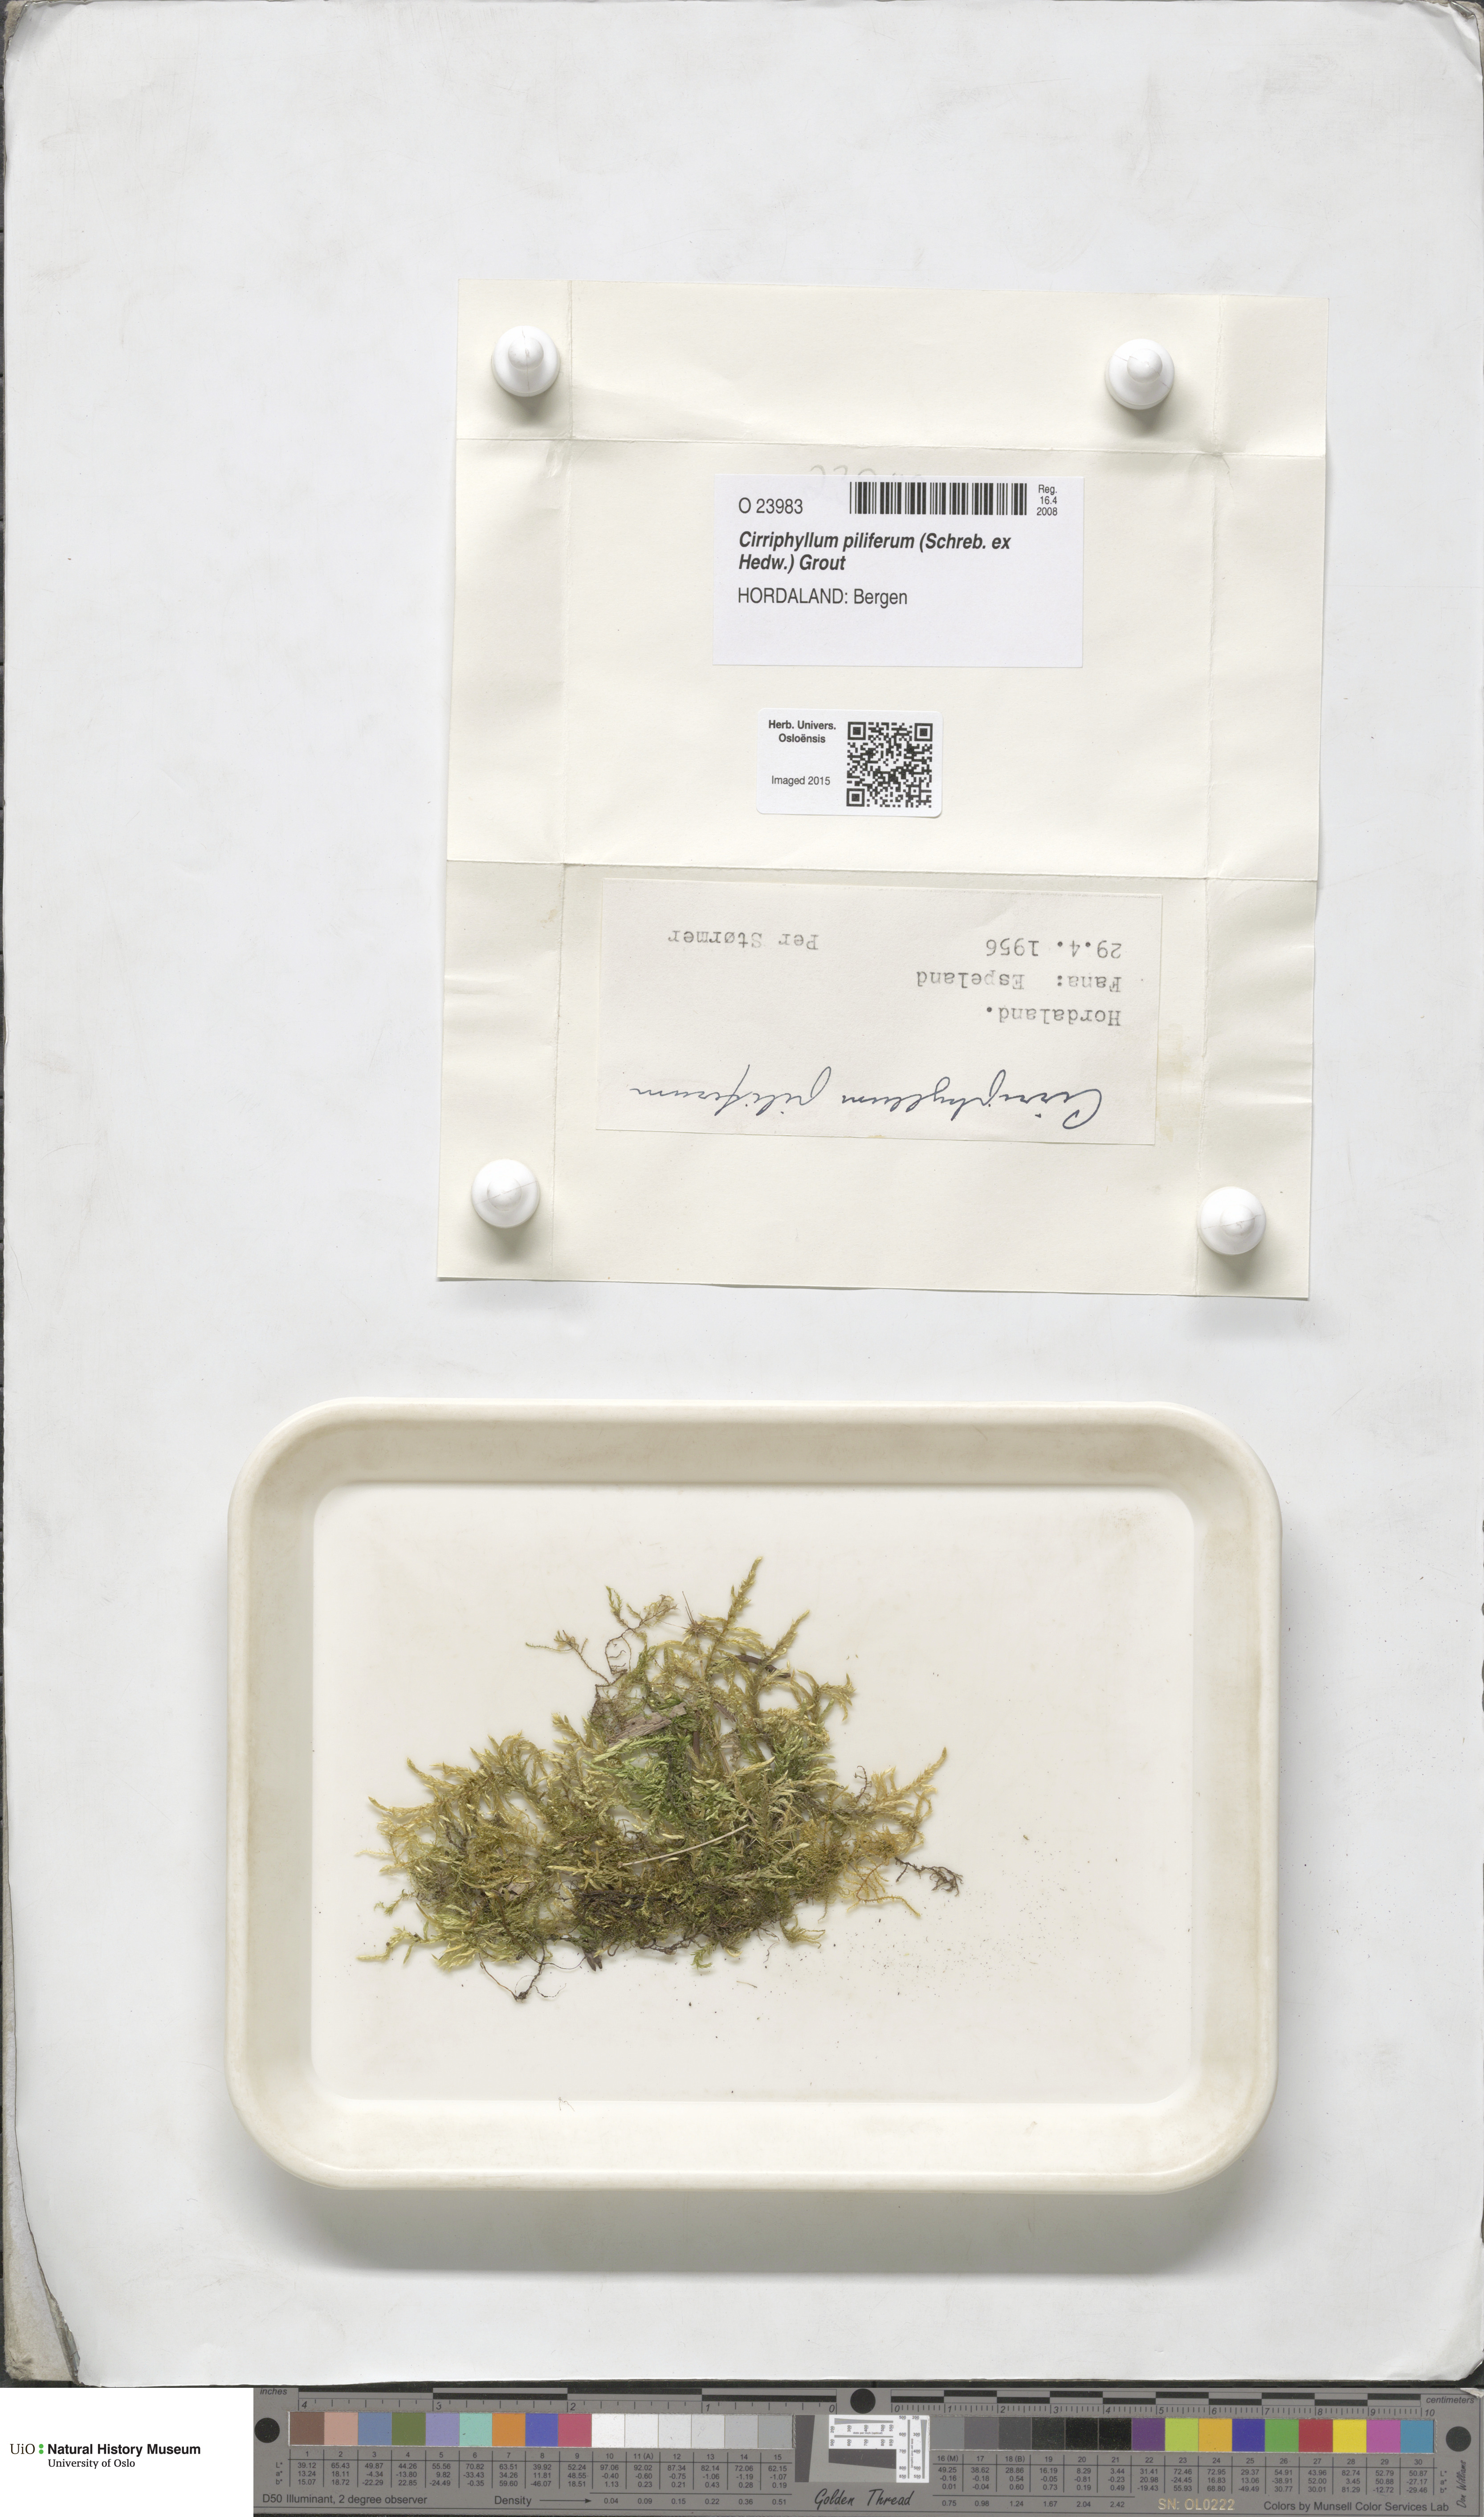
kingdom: Plantae
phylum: Bryophyta
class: Bryopsida
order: Hypnales
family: Brachytheciaceae
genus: Cirriphyllum
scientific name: Cirriphyllum piliferum
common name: Hair-pointed moss
